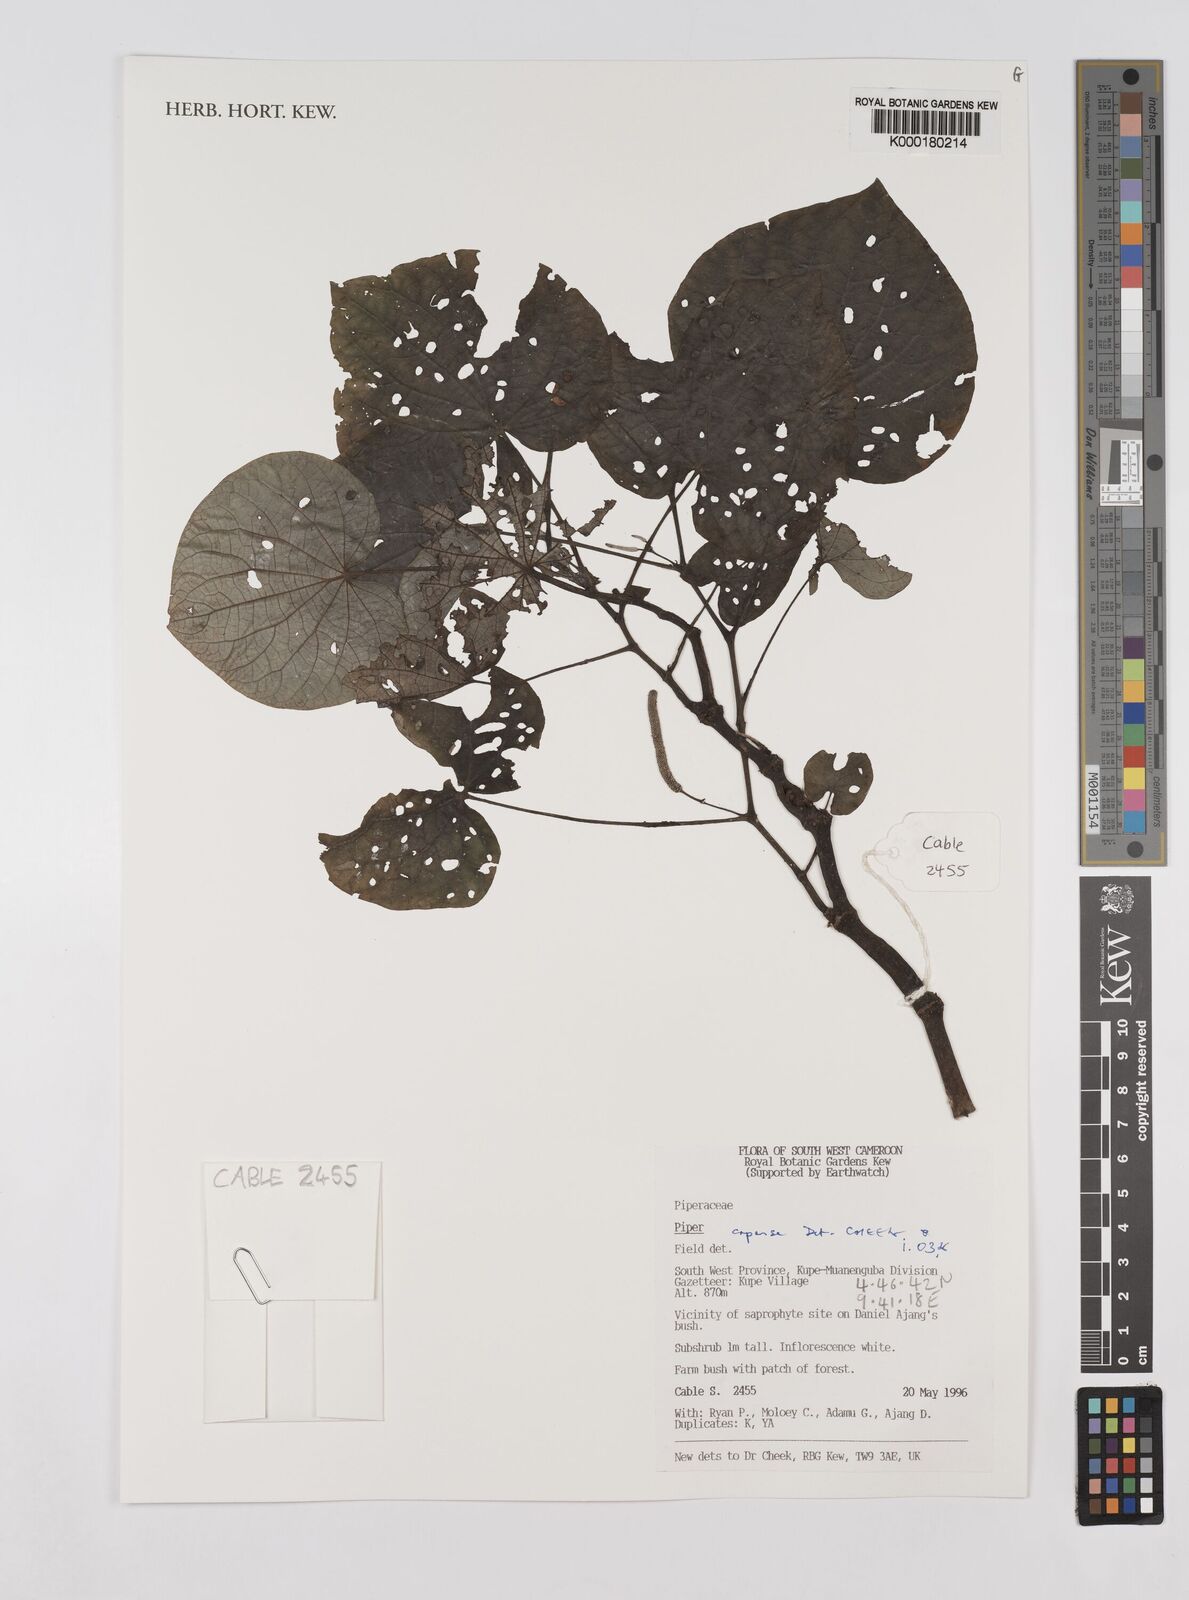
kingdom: Plantae
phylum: Tracheophyta
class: Magnoliopsida
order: Piperales
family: Piperaceae
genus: Piper
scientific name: Piper capense
